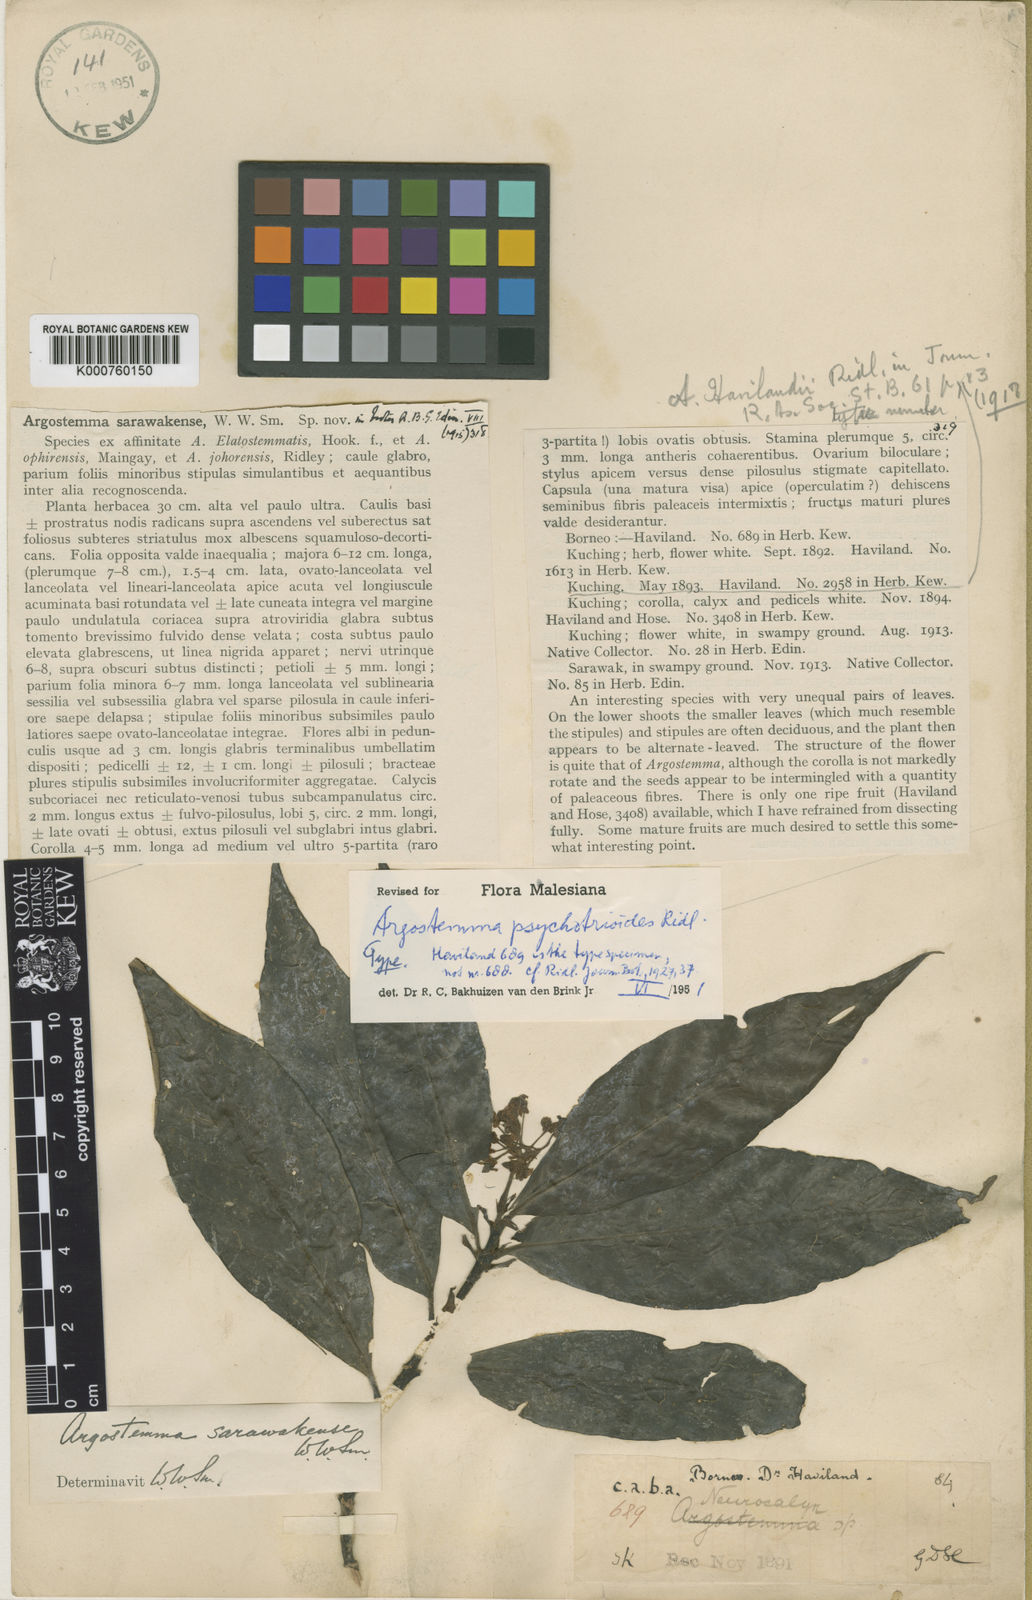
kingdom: Plantae
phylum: Tracheophyta
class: Magnoliopsida
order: Gentianales
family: Rubiaceae
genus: Argostemma
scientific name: Argostemma psychotrioides
